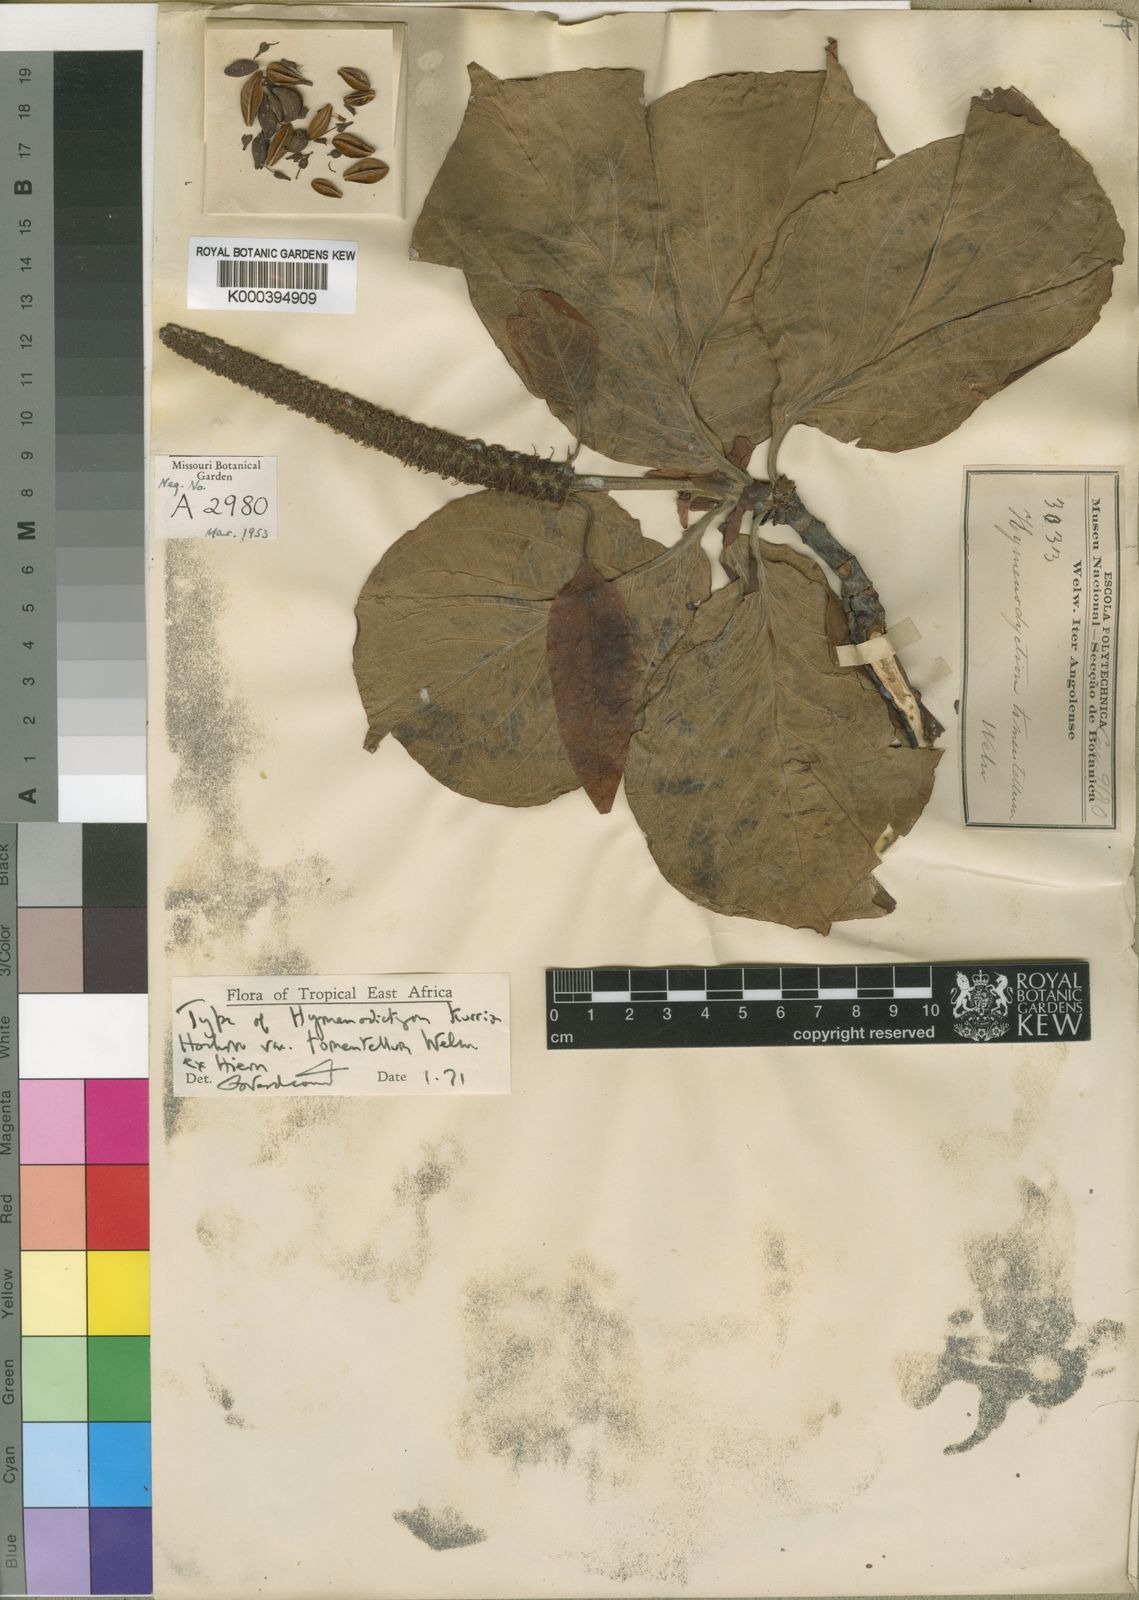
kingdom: Plantae
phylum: Tracheophyta
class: Magnoliopsida
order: Gentianales
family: Rubiaceae
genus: Hymenodictyon
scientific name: Hymenodictyon floribundum
